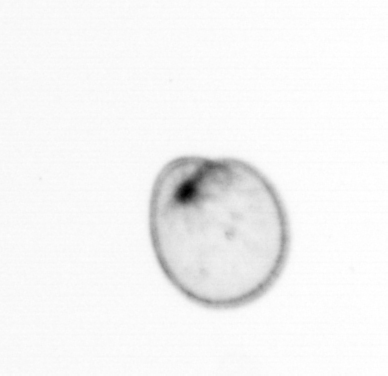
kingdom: Chromista
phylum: Myzozoa
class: Dinophyceae
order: Noctilucales
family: Noctilucaceae
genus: Noctiluca
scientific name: Noctiluca scintillans
